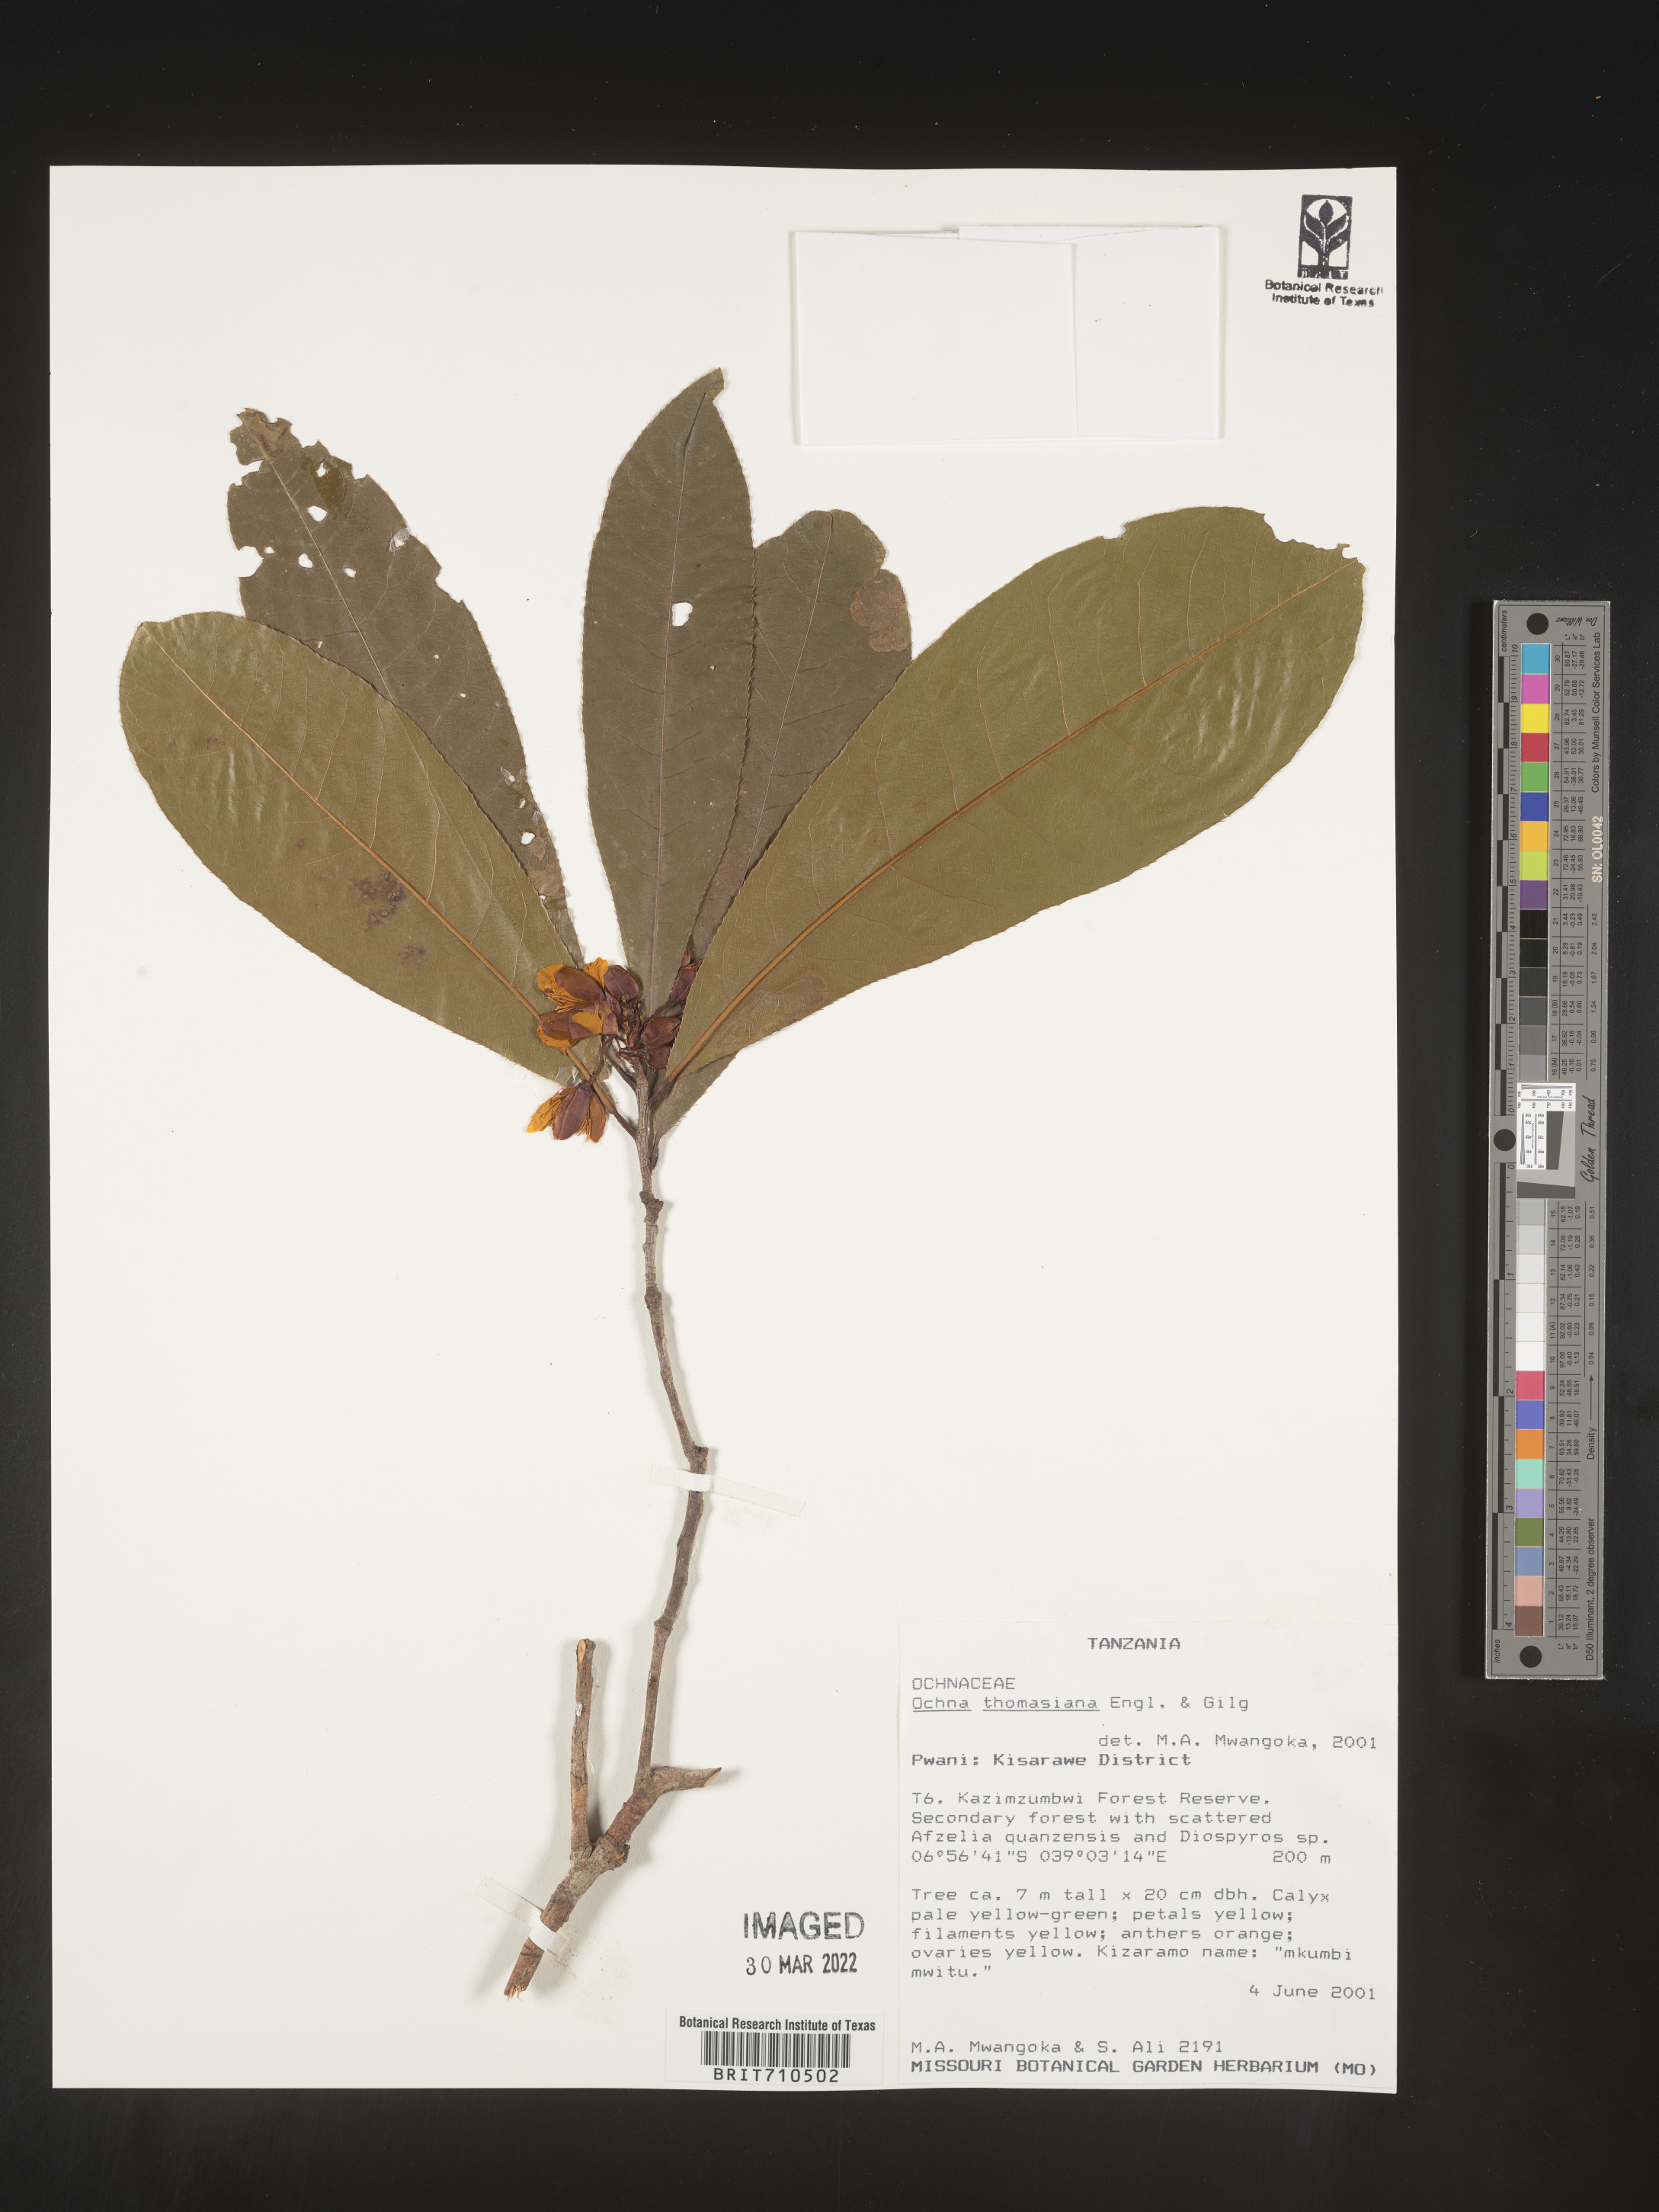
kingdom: Plantae
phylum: Tracheophyta
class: Magnoliopsida
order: Malpighiales
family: Ochnaceae
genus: Ochna
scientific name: Ochna
